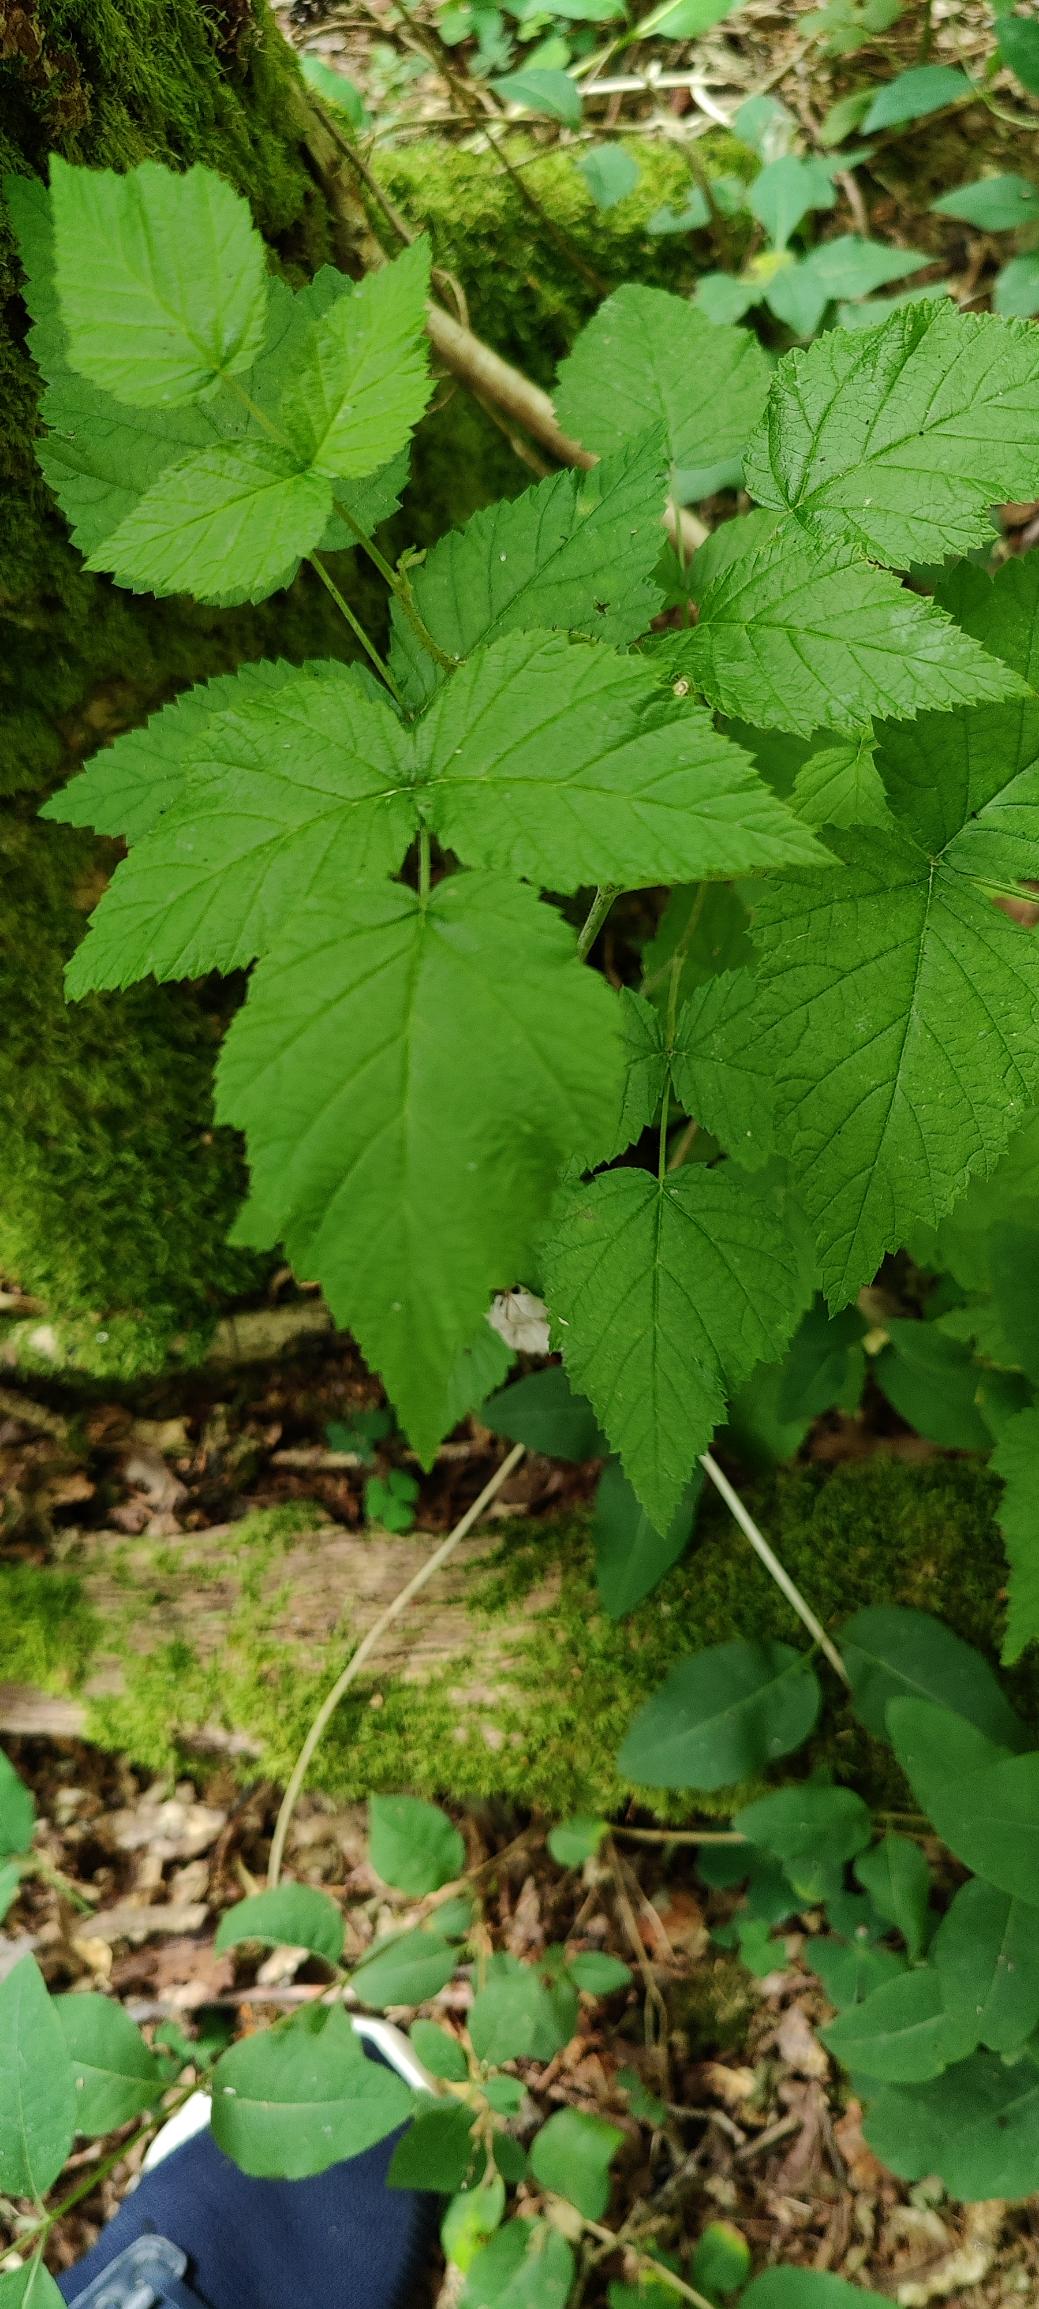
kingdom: Plantae
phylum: Tracheophyta
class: Magnoliopsida
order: Rosales
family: Rosaceae
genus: Rubus
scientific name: Rubus idaeus
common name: Hindbær
